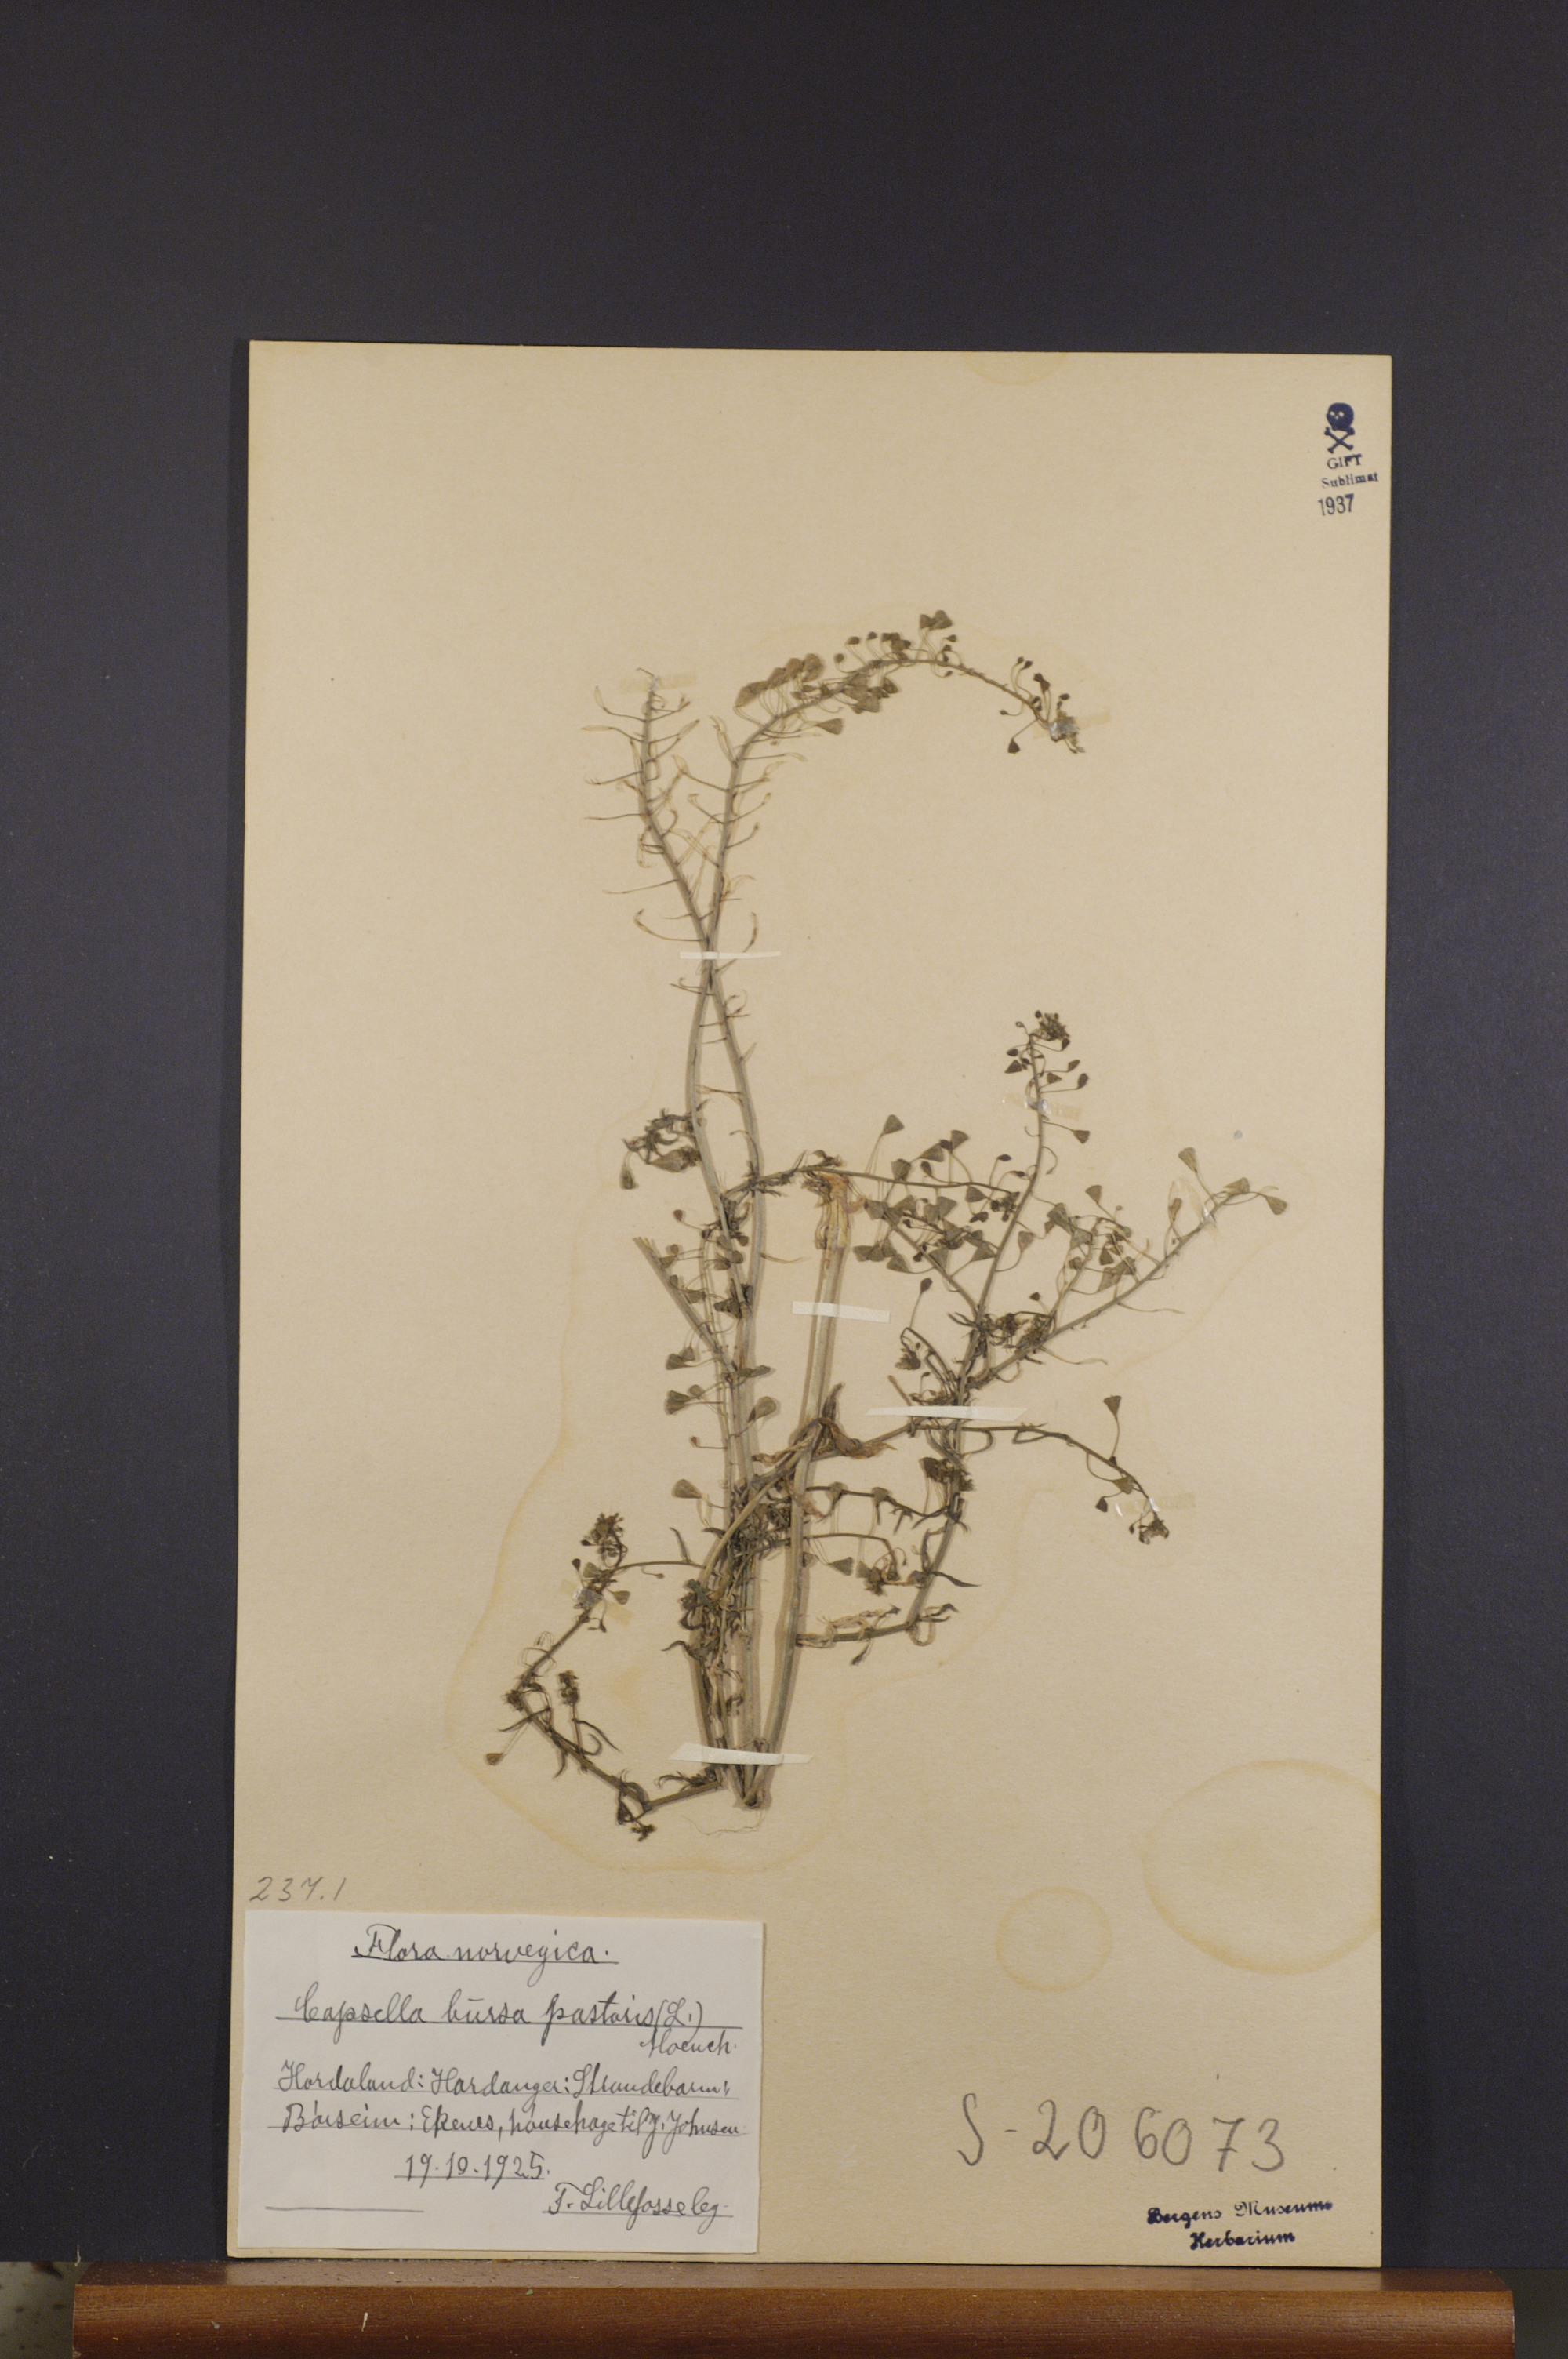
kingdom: Plantae
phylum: Tracheophyta
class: Magnoliopsida
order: Brassicales
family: Brassicaceae
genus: Capsella
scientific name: Capsella bursa-pastoris
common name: Shepherd's purse
